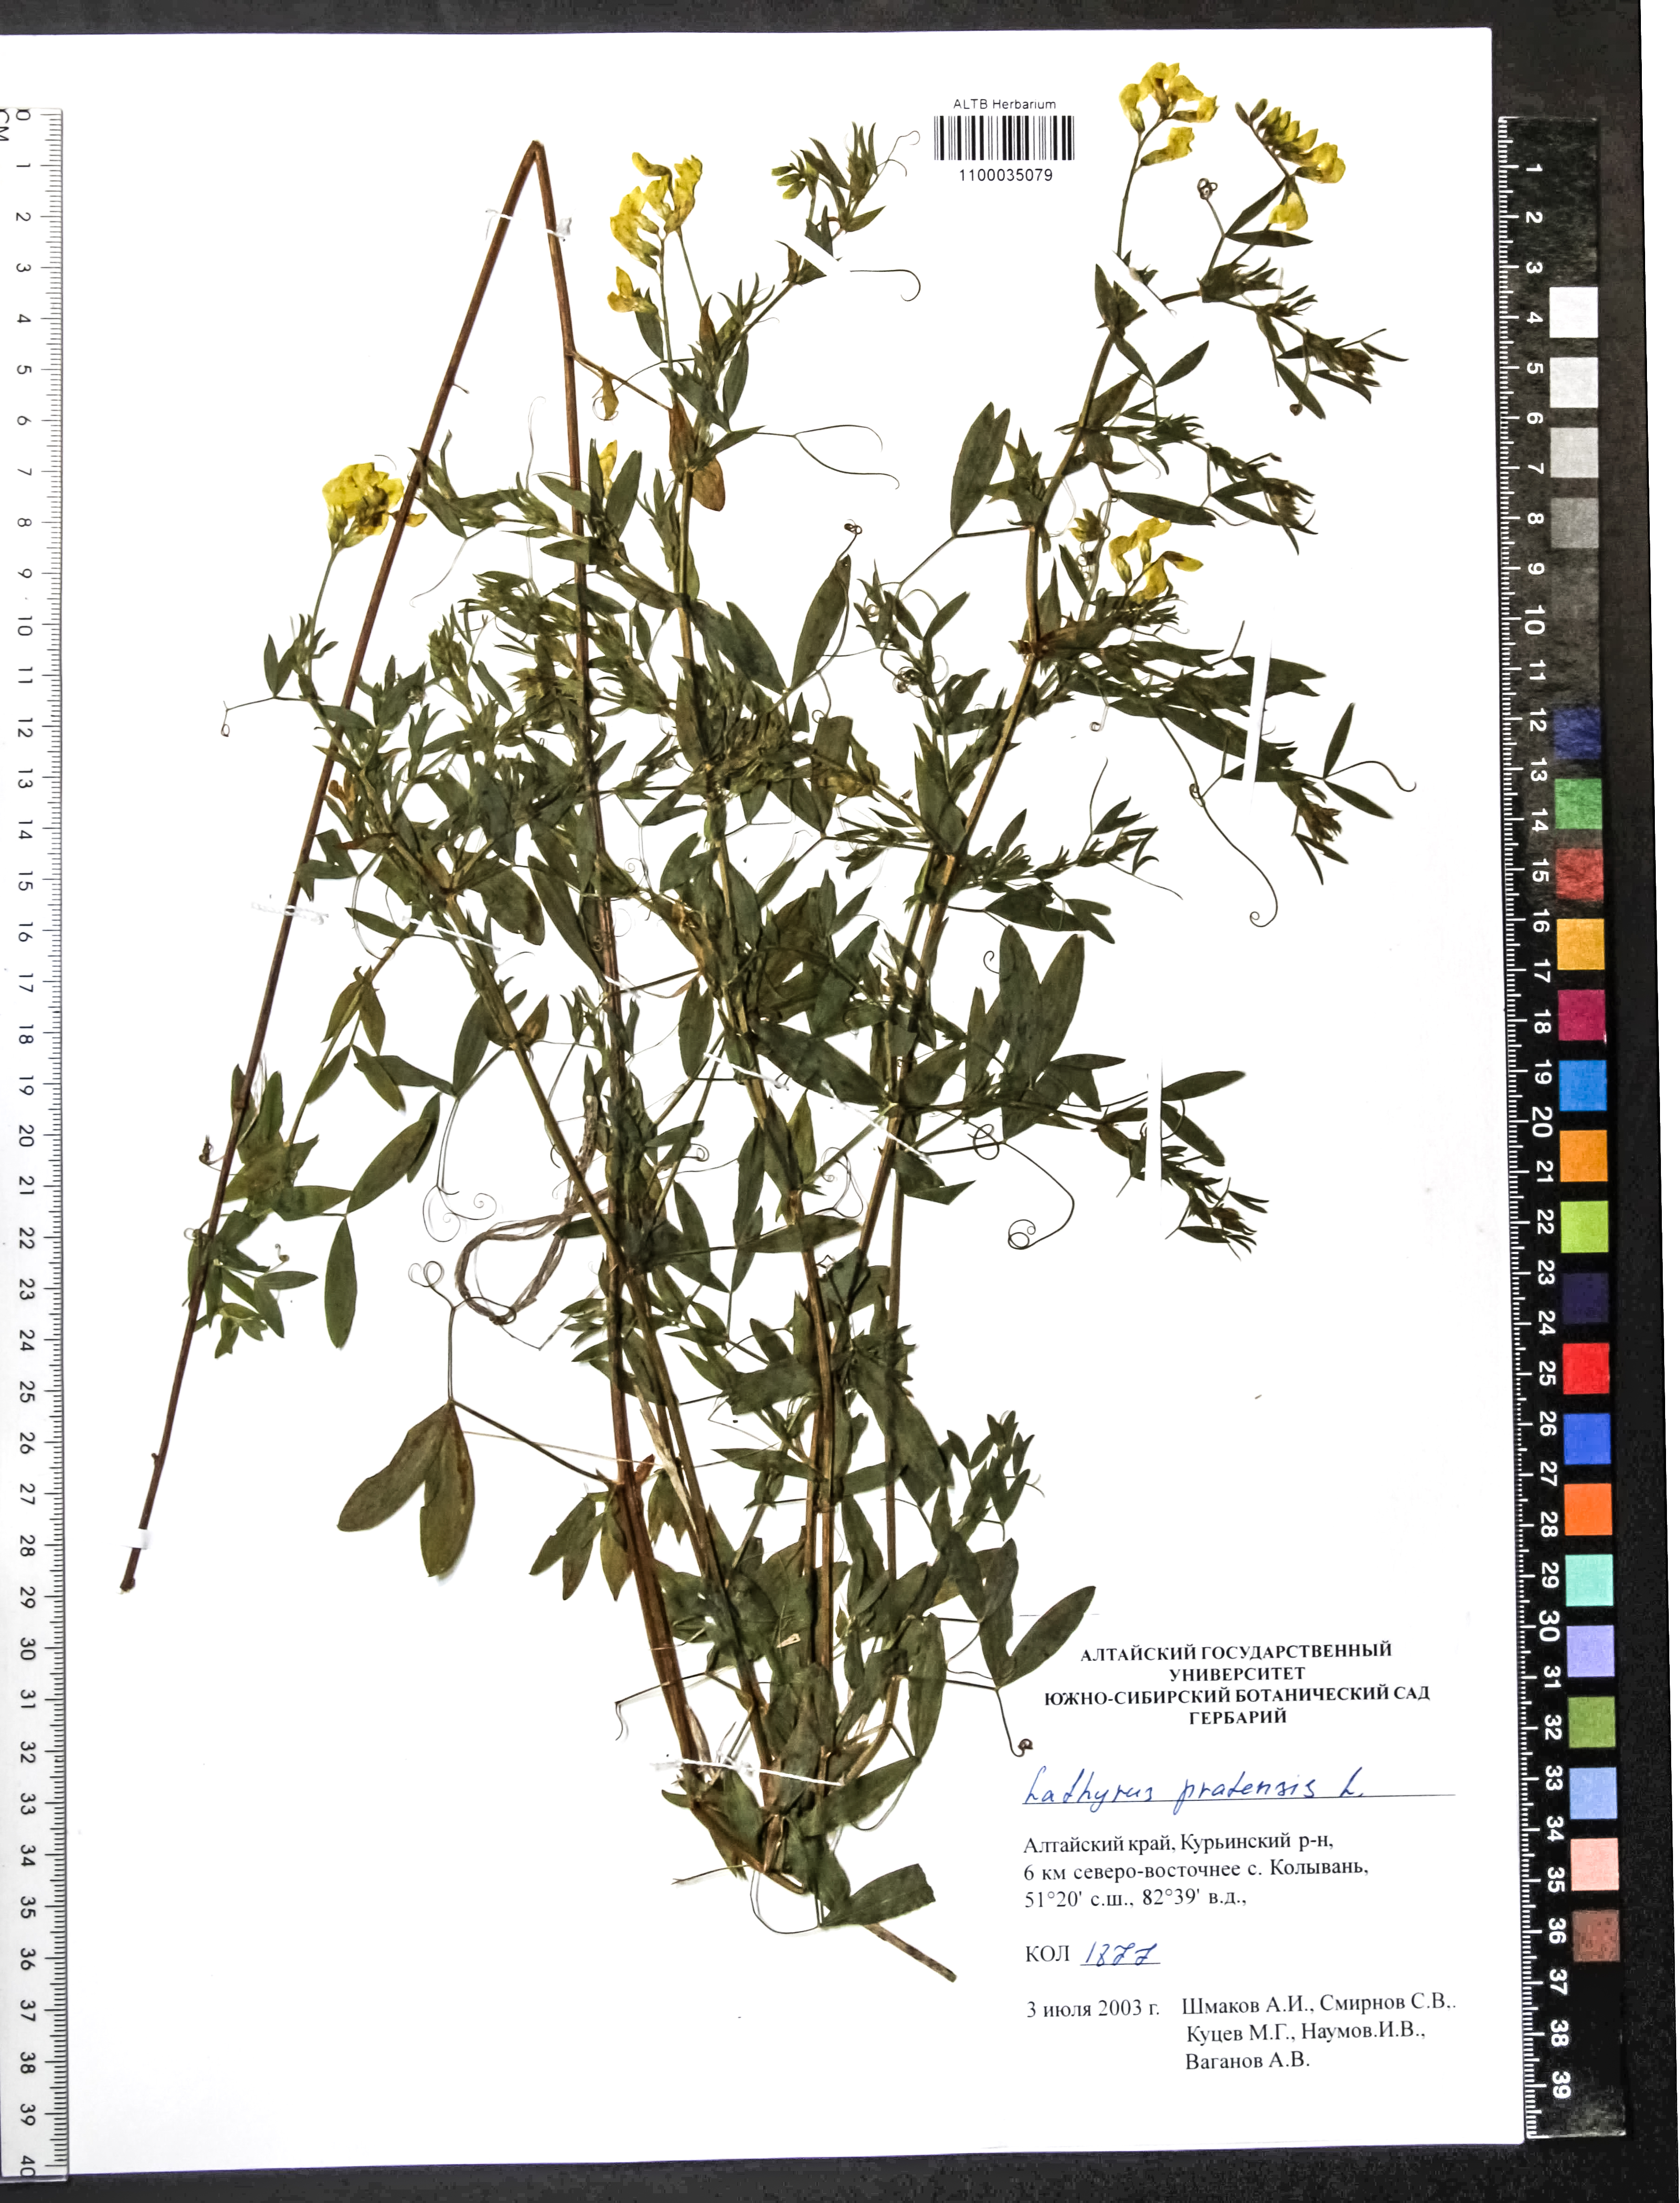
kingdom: Plantae
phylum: Tracheophyta
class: Magnoliopsida
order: Fabales
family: Fabaceae
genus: Lathyrus
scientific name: Lathyrus pratensis
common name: Meadow vetchling
